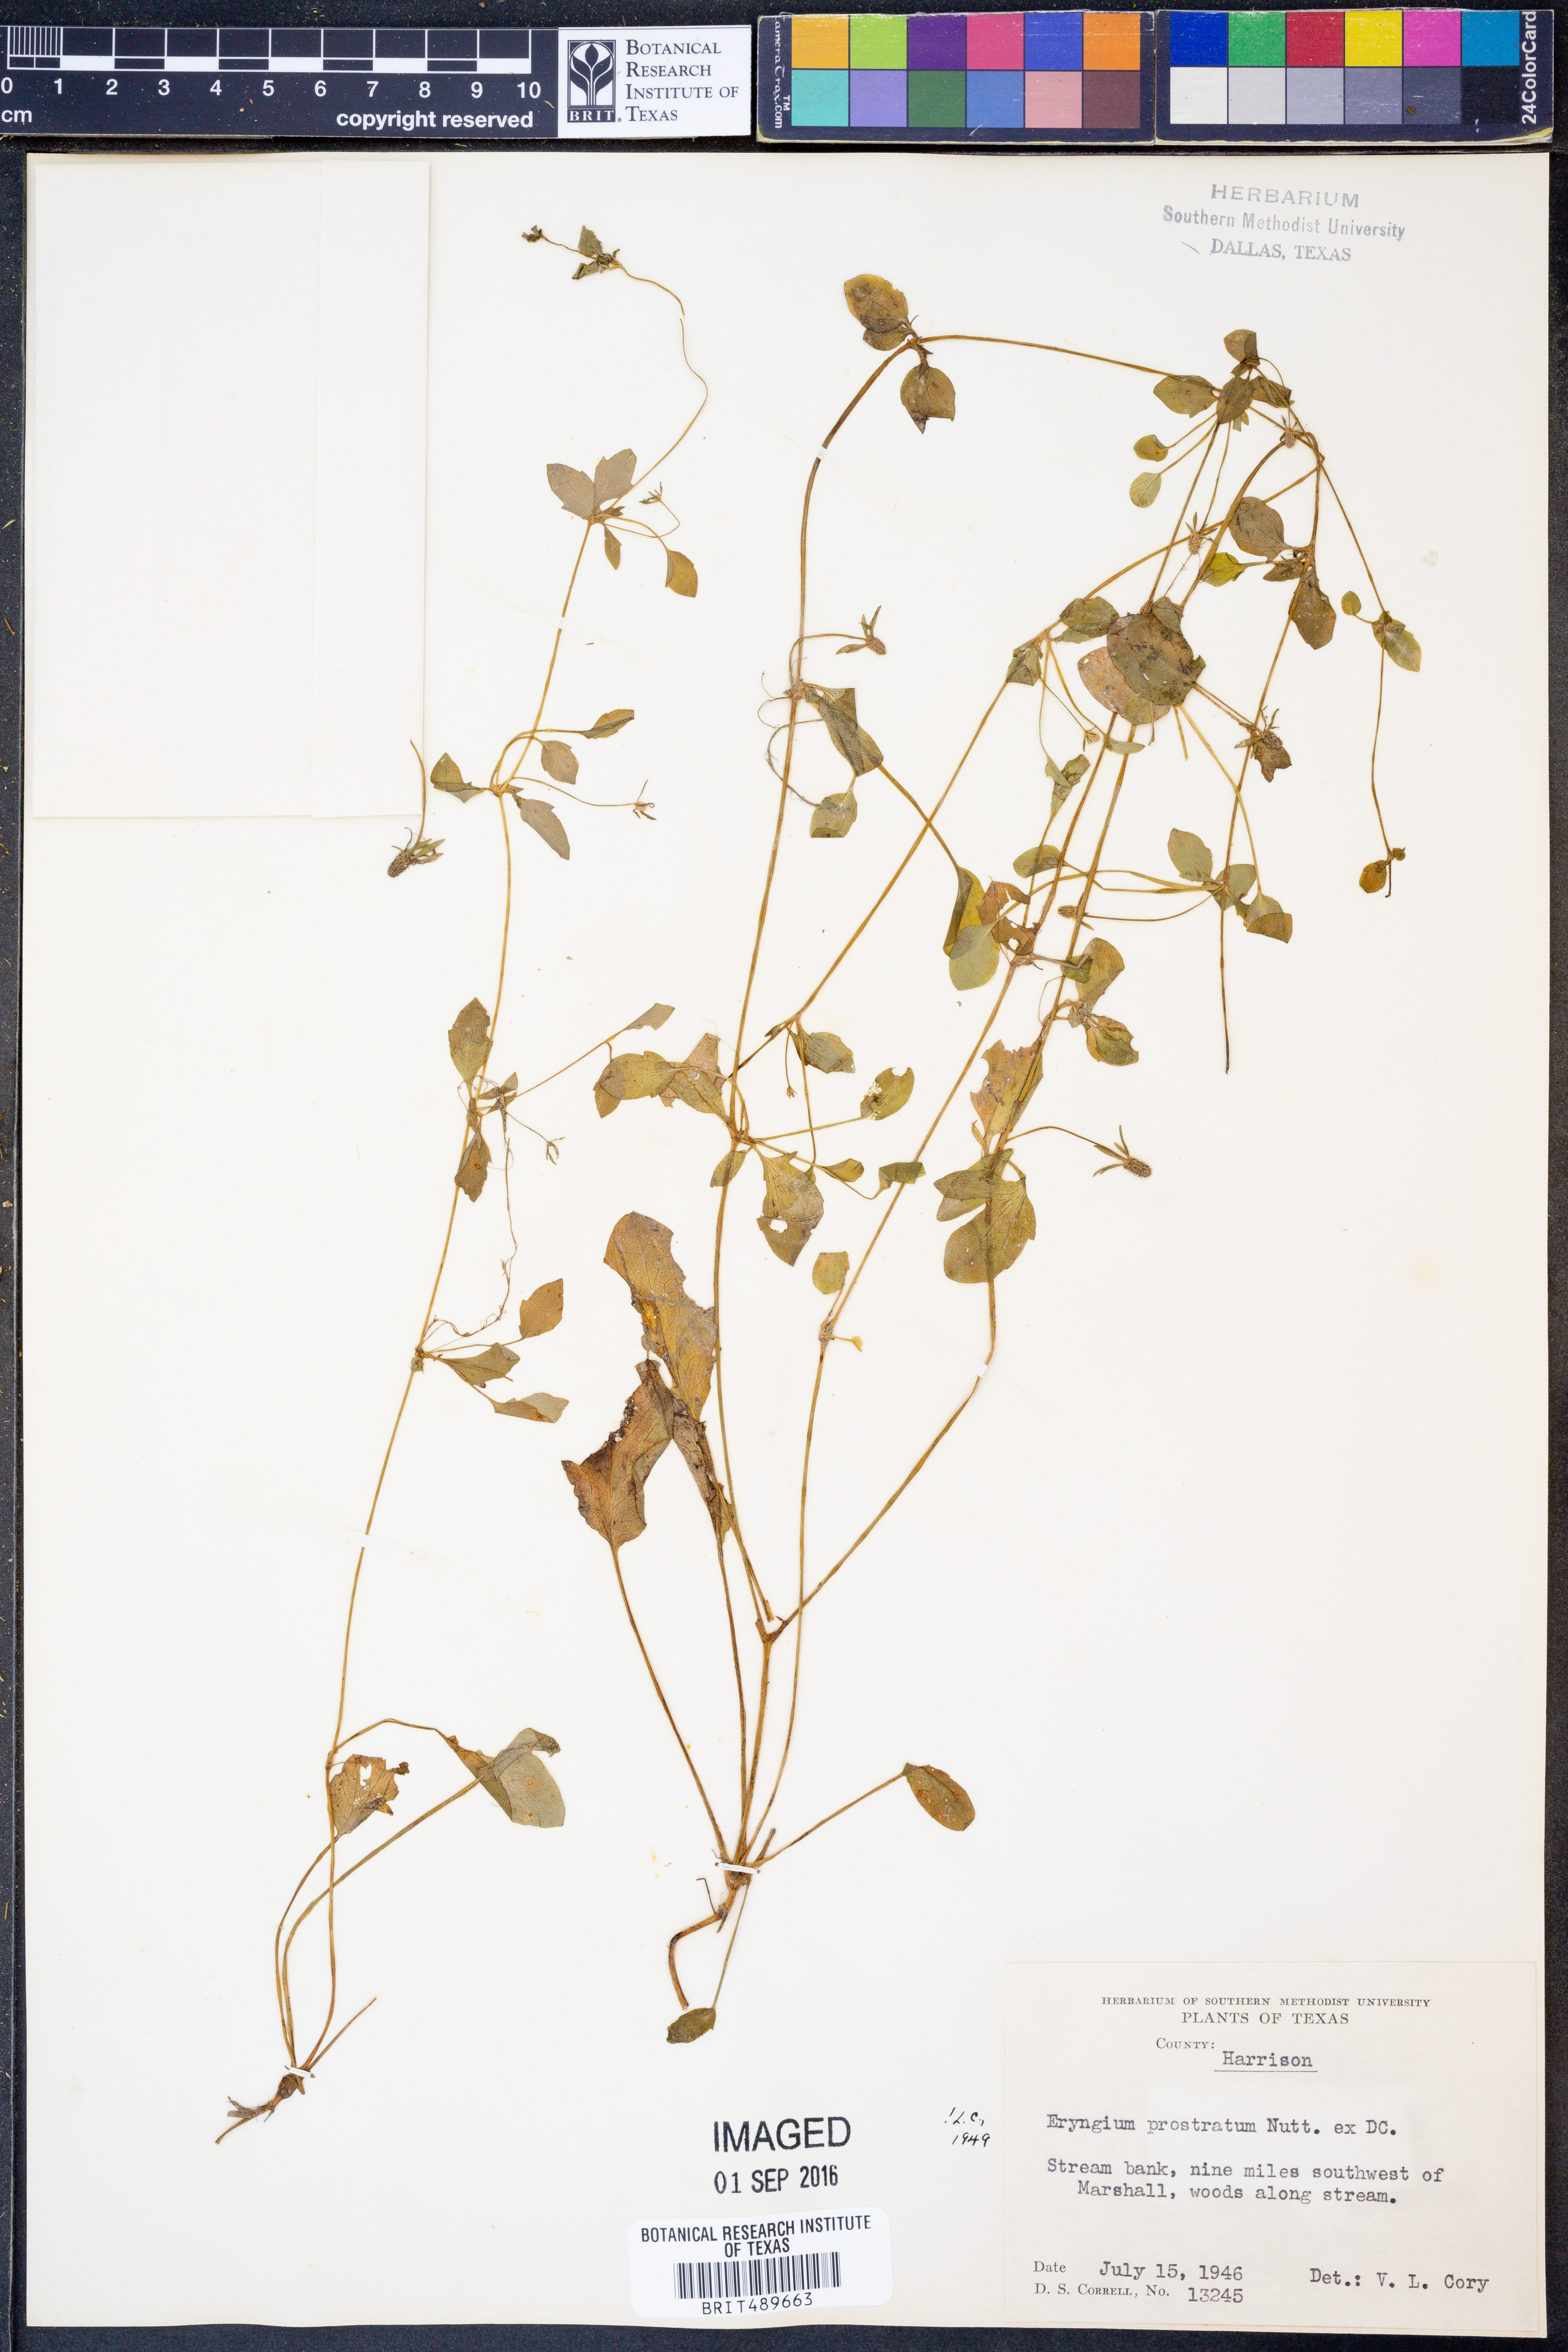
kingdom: Plantae
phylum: Tracheophyta
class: Magnoliopsida
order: Apiales
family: Apiaceae
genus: Eryngium
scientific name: Eryngium prostratum
